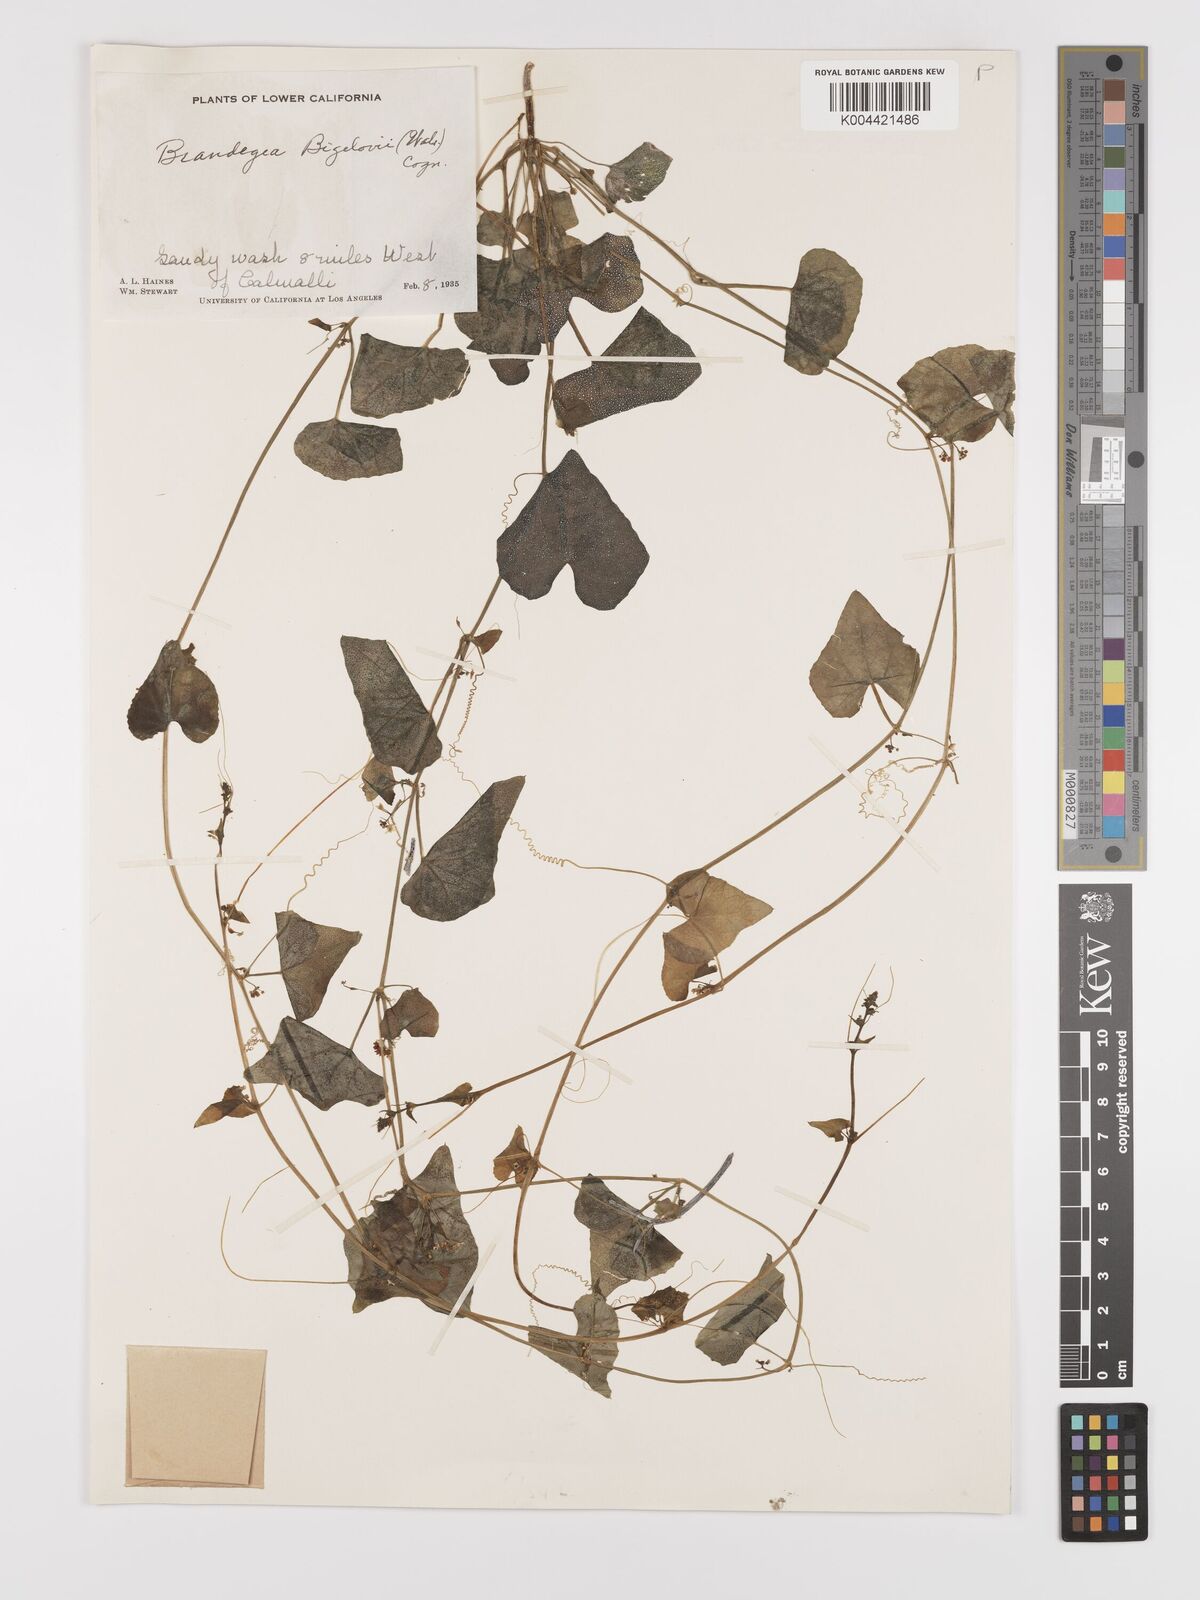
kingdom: Plantae
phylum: Tracheophyta
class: Magnoliopsida
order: Cucurbitales
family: Cucurbitaceae
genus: Echinopepon
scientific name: Echinopepon bigelovii
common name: Desert starvine
